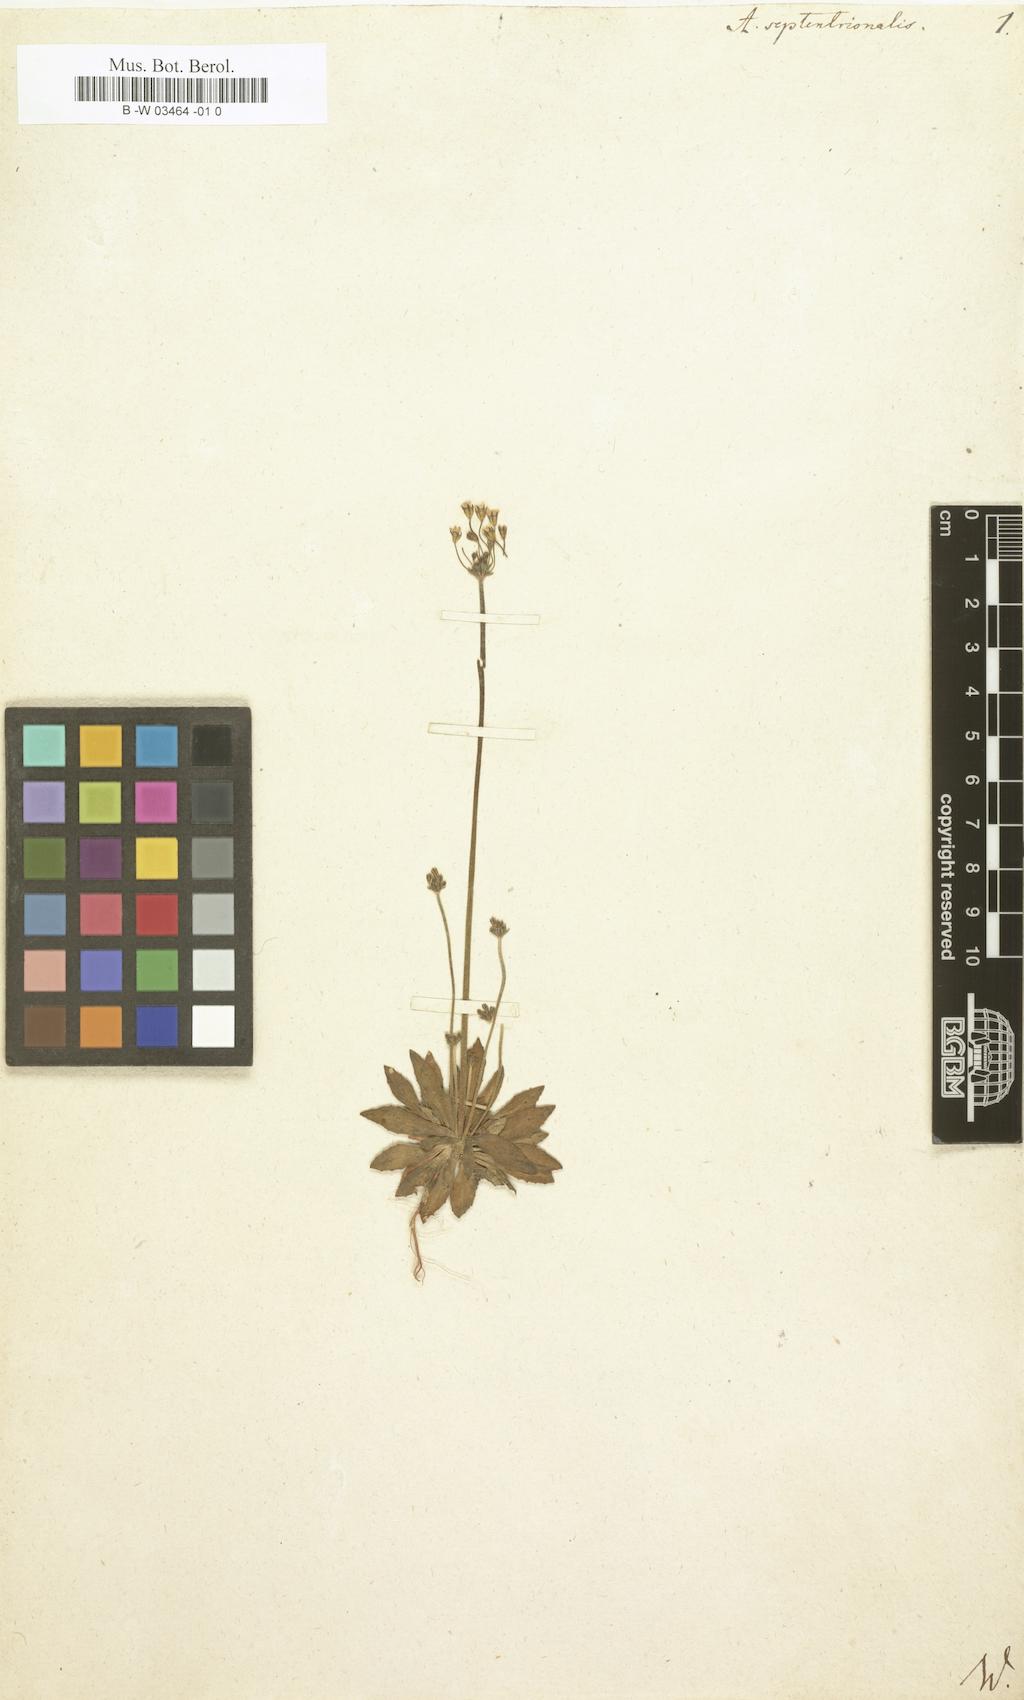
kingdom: Plantae
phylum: Tracheophyta
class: Magnoliopsida
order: Ericales
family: Primulaceae
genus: Androsace
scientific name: Androsace septentrionalis
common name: Hairy northern fairy-candelabra
